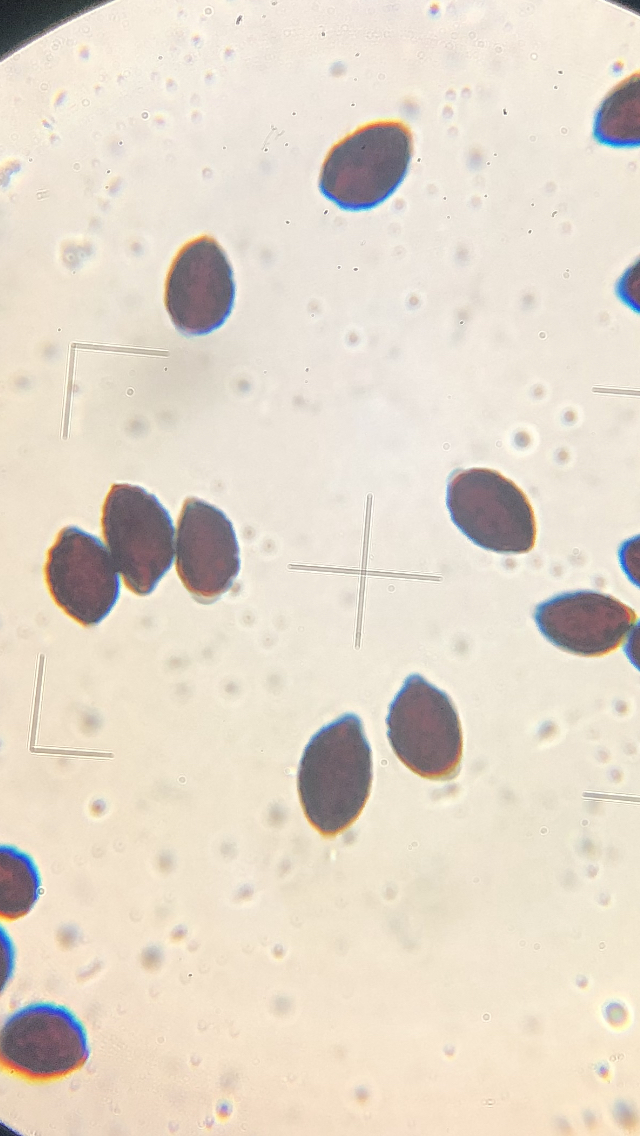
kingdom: Fungi
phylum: Basidiomycota
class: Agaricomycetes
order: Agaricales
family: Psathyrellaceae
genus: Coprinopsis
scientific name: Coprinopsis insignis
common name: stor blækhat
